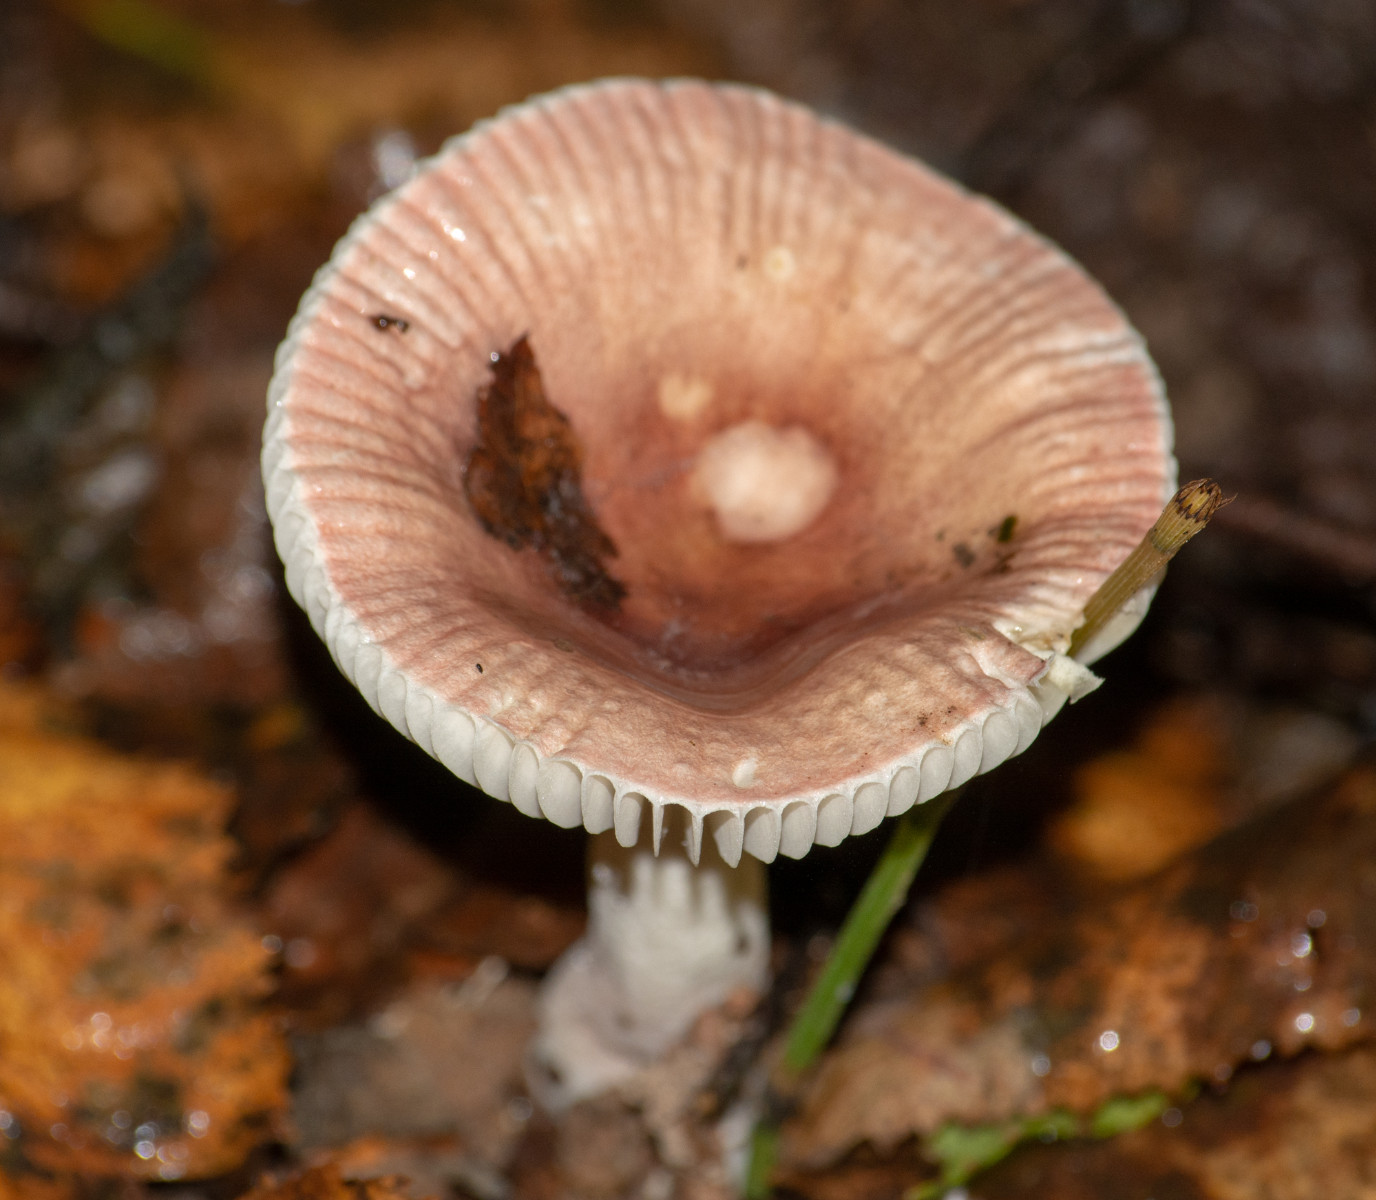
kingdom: Fungi
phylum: Basidiomycota
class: Agaricomycetes
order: Russulales
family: Russulaceae
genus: Russula
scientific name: Russula
